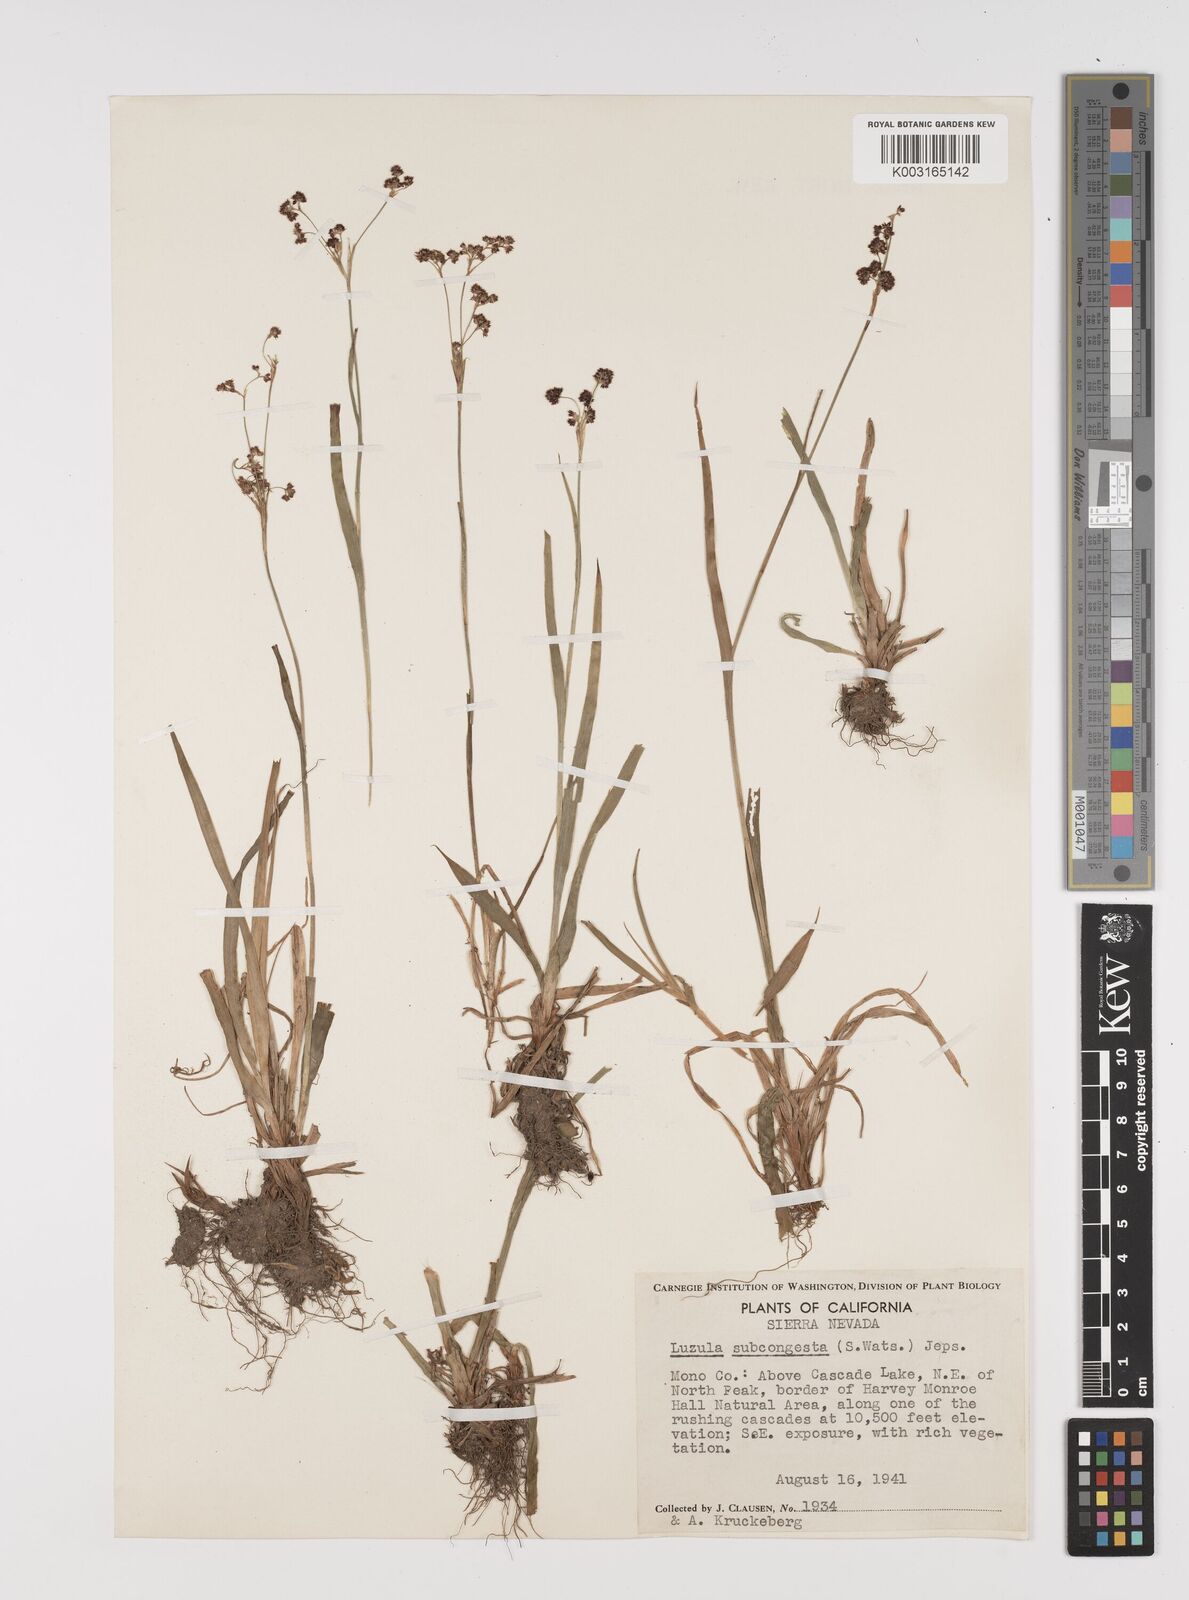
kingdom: Plantae
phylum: Tracheophyta
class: Liliopsida
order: Poales
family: Juncaceae
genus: Luzula
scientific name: Luzula subcongesta
